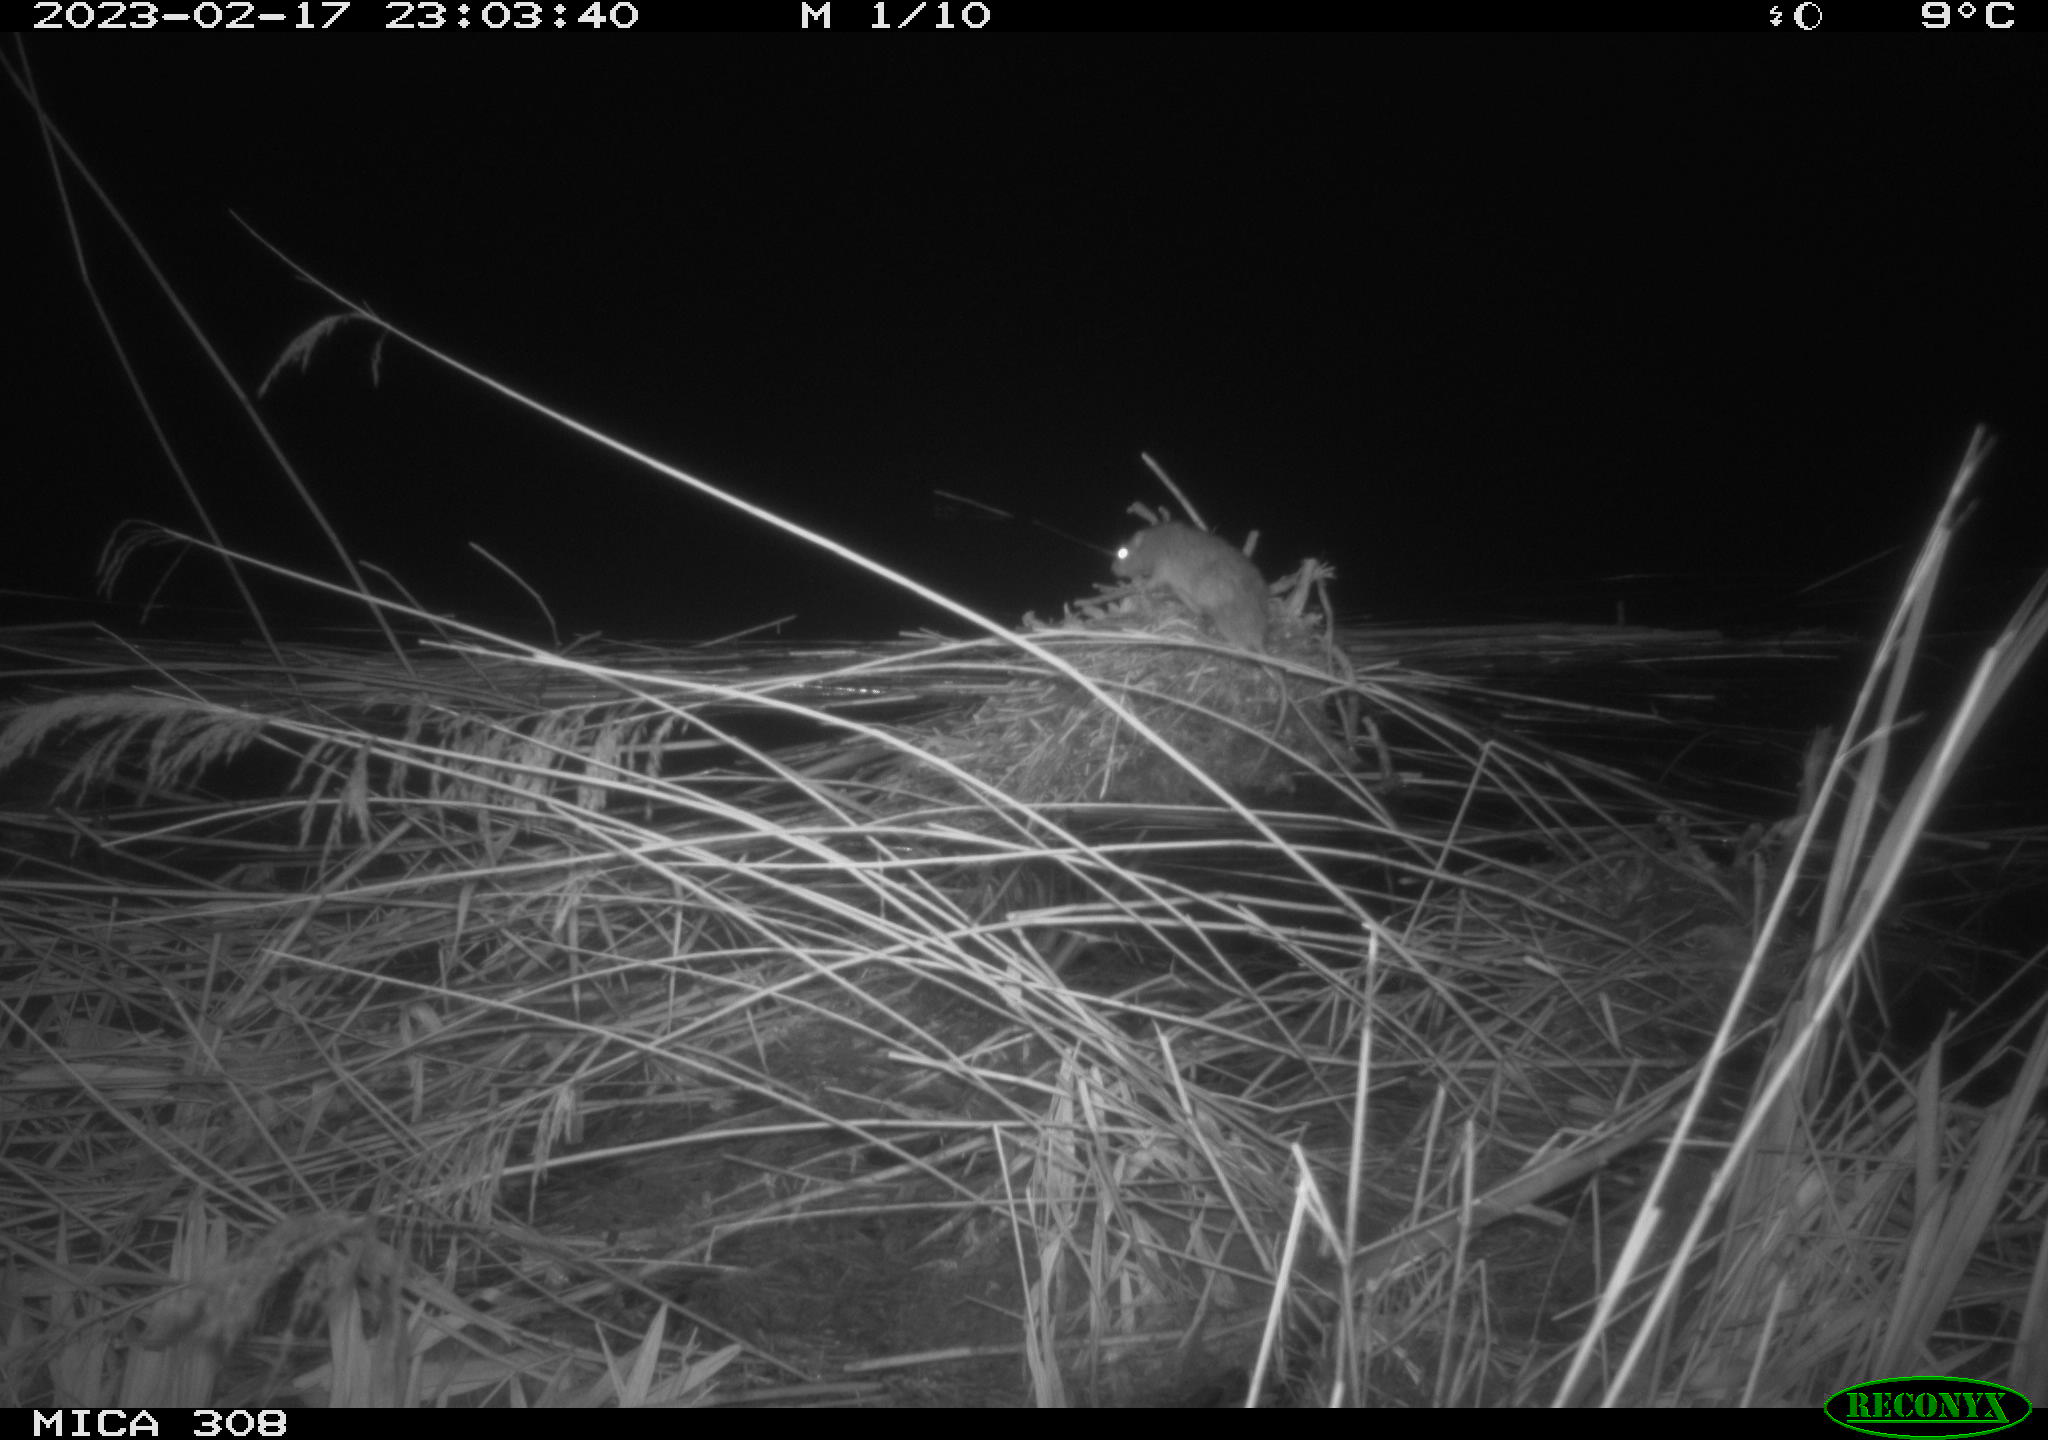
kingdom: Animalia
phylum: Chordata
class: Mammalia
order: Rodentia
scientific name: Rodentia
